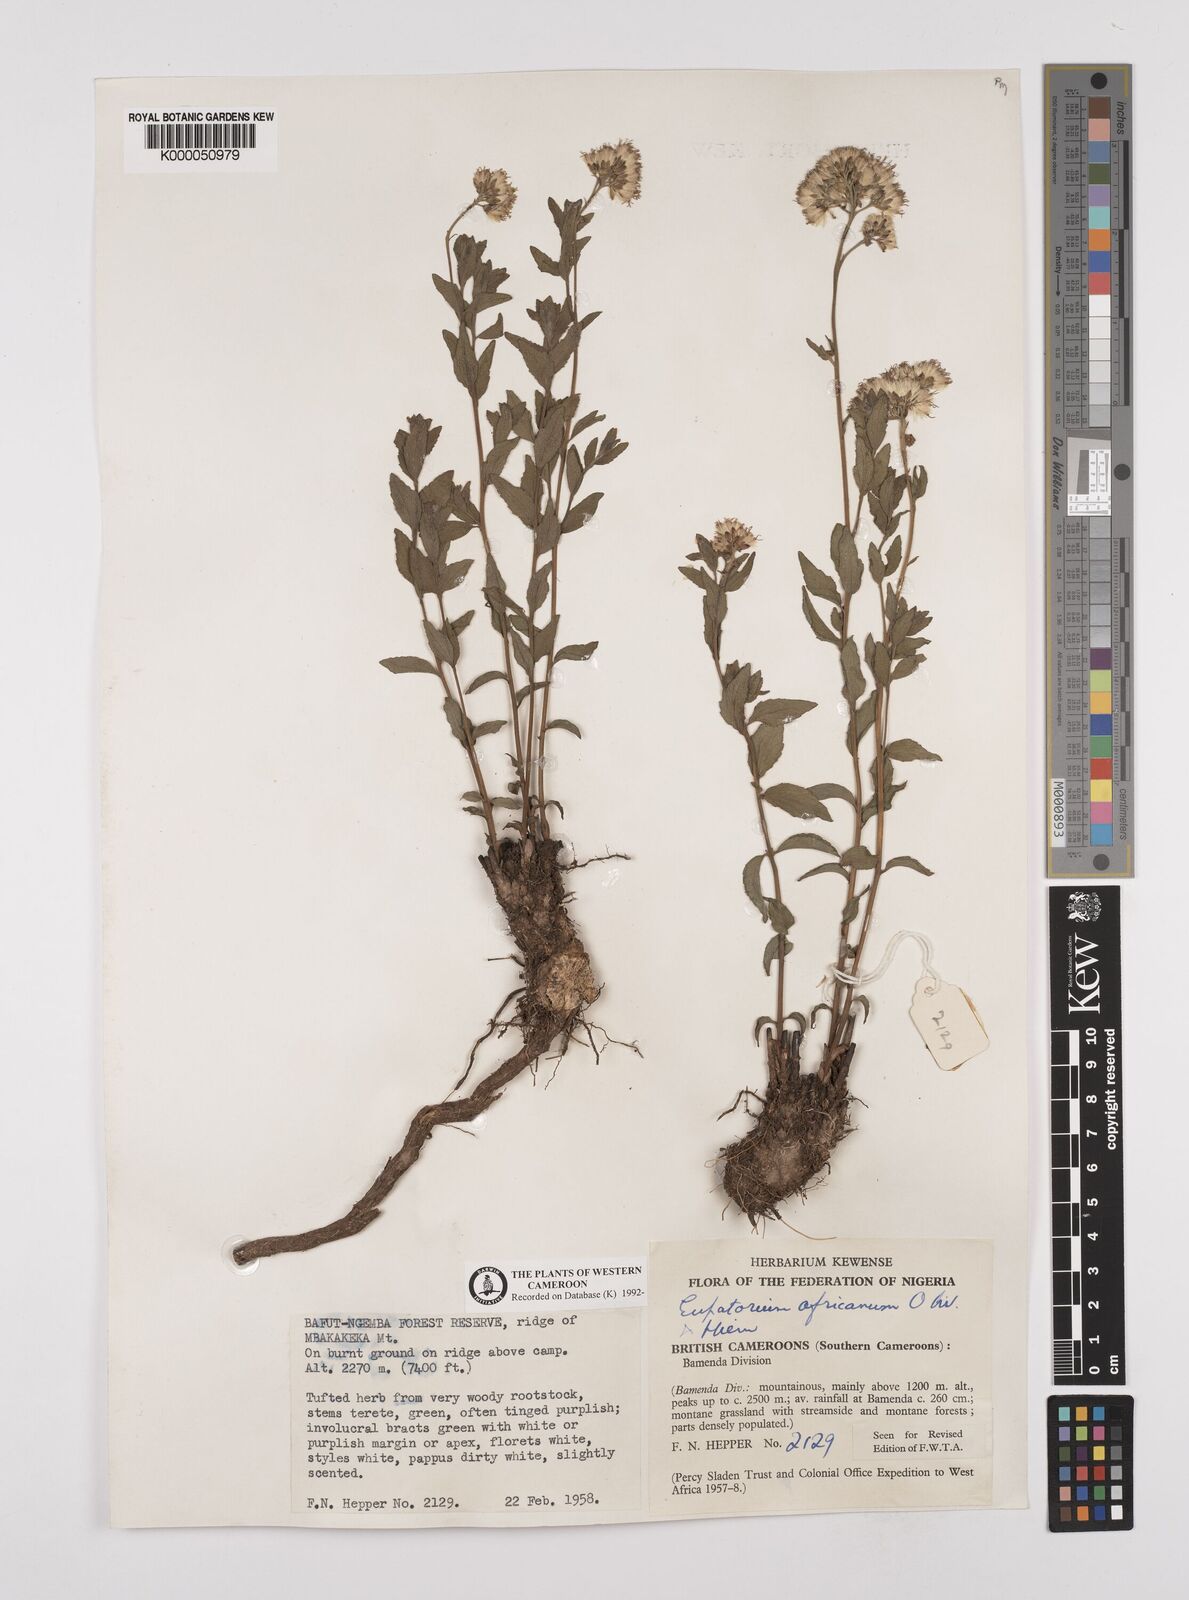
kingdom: Plantae
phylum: Tracheophyta
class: Magnoliopsida
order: Asterales
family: Asteraceae
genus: Stomatanthes
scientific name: Stomatanthes africanus
